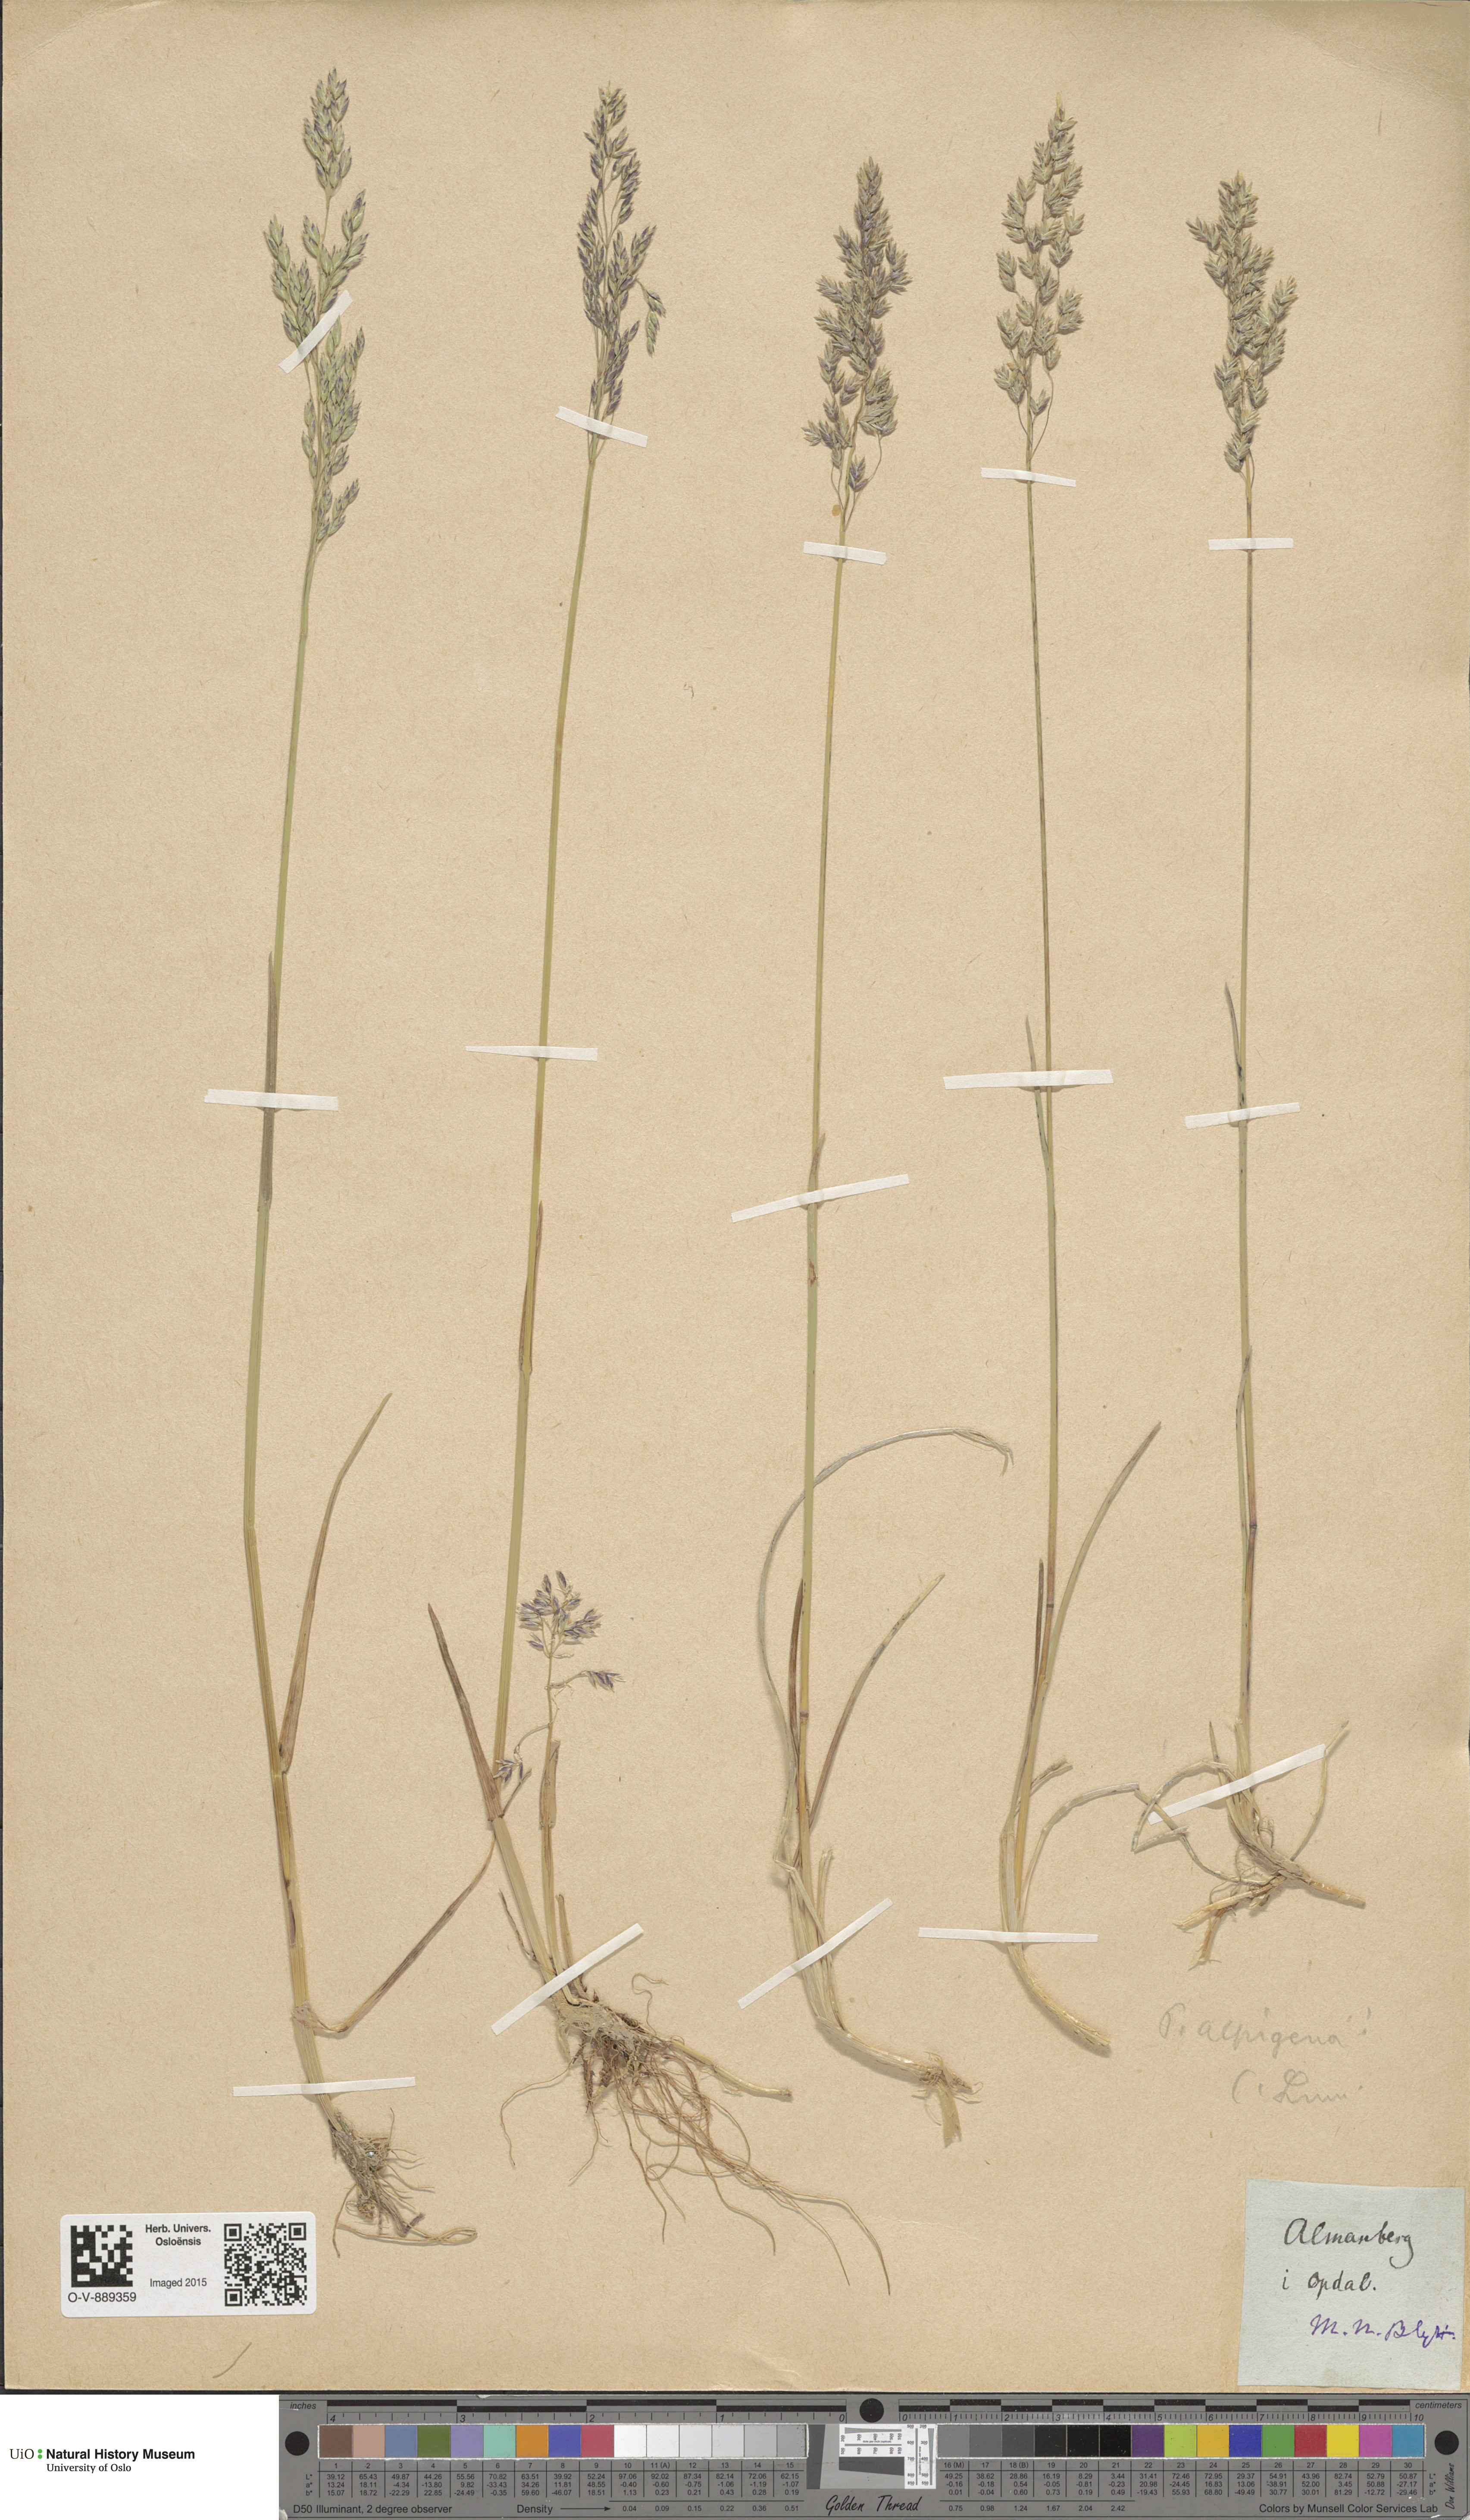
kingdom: Plantae
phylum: Tracheophyta
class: Liliopsida
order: Poales
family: Poaceae
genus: Poa
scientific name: Poa alpigena
